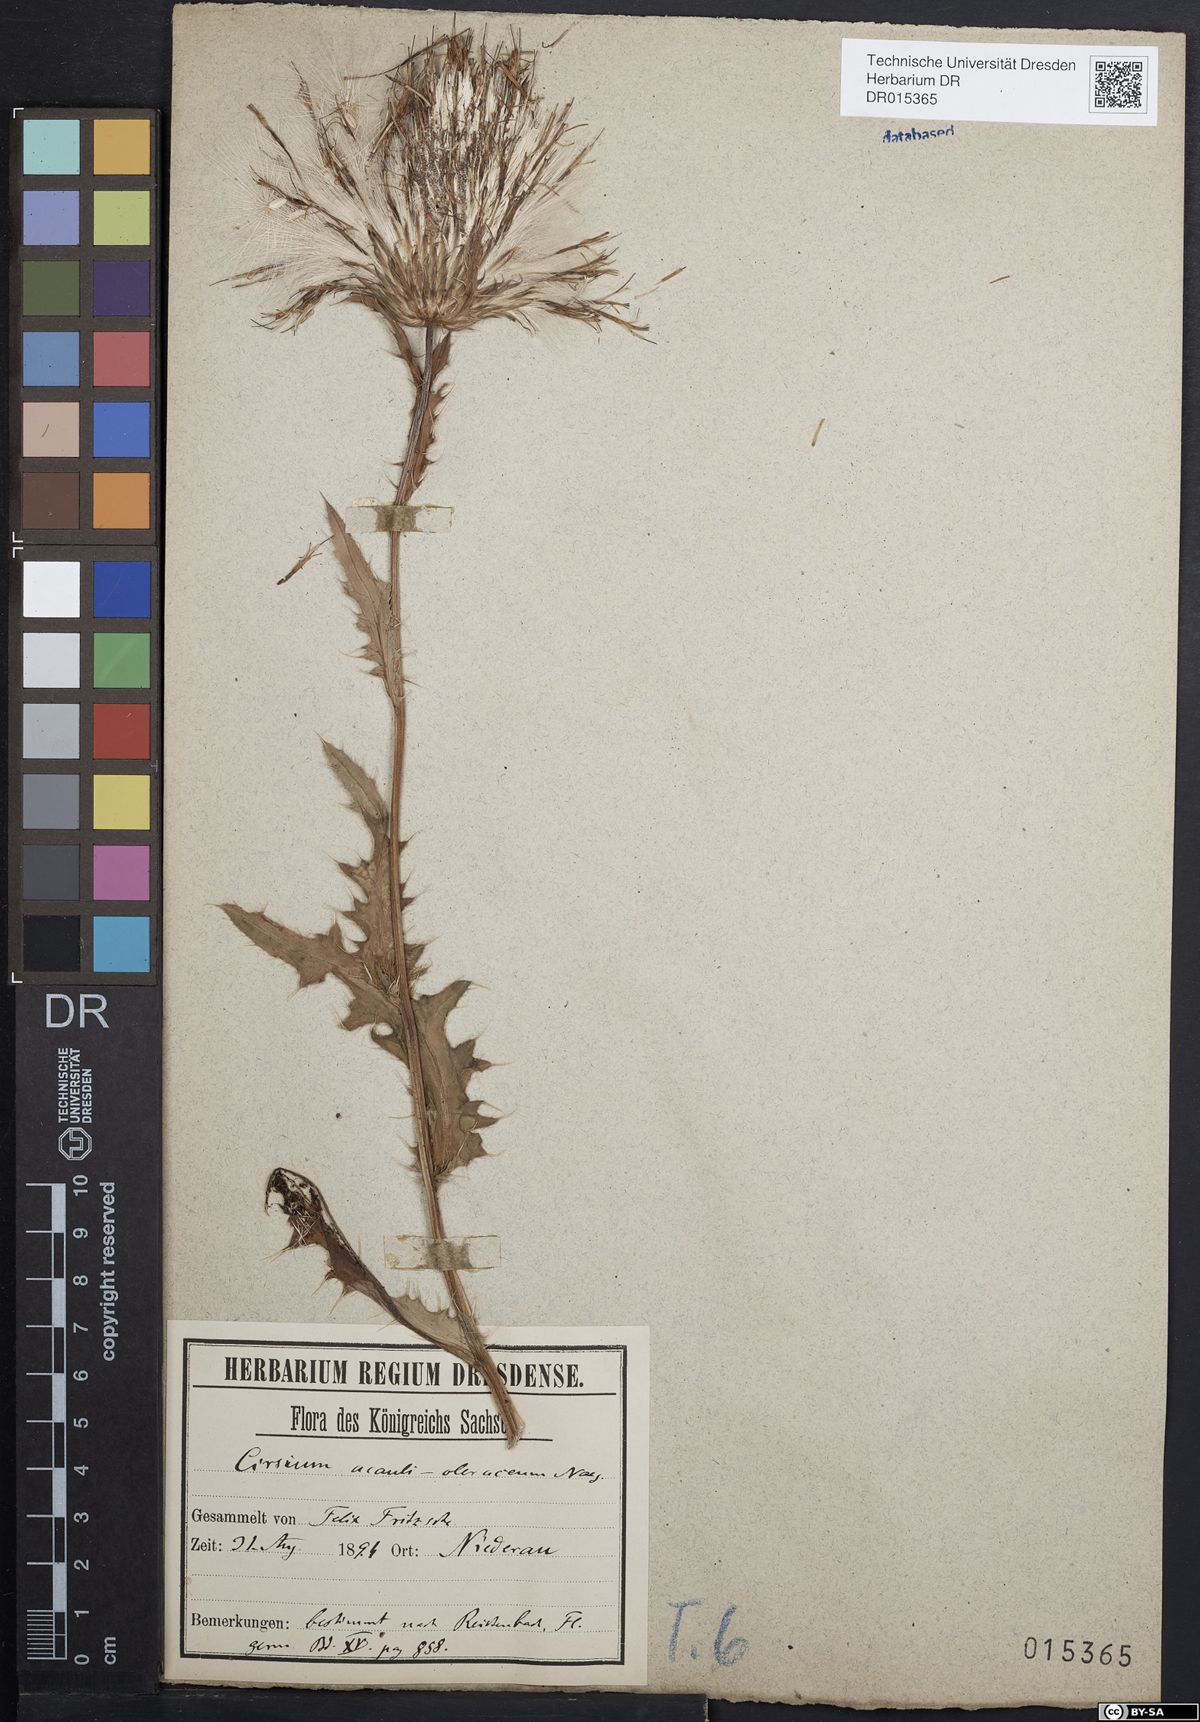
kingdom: Plantae
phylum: Tracheophyta
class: Magnoliopsida
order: Asterales
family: Asteraceae
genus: Cirsium
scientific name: Cirsium rigens
